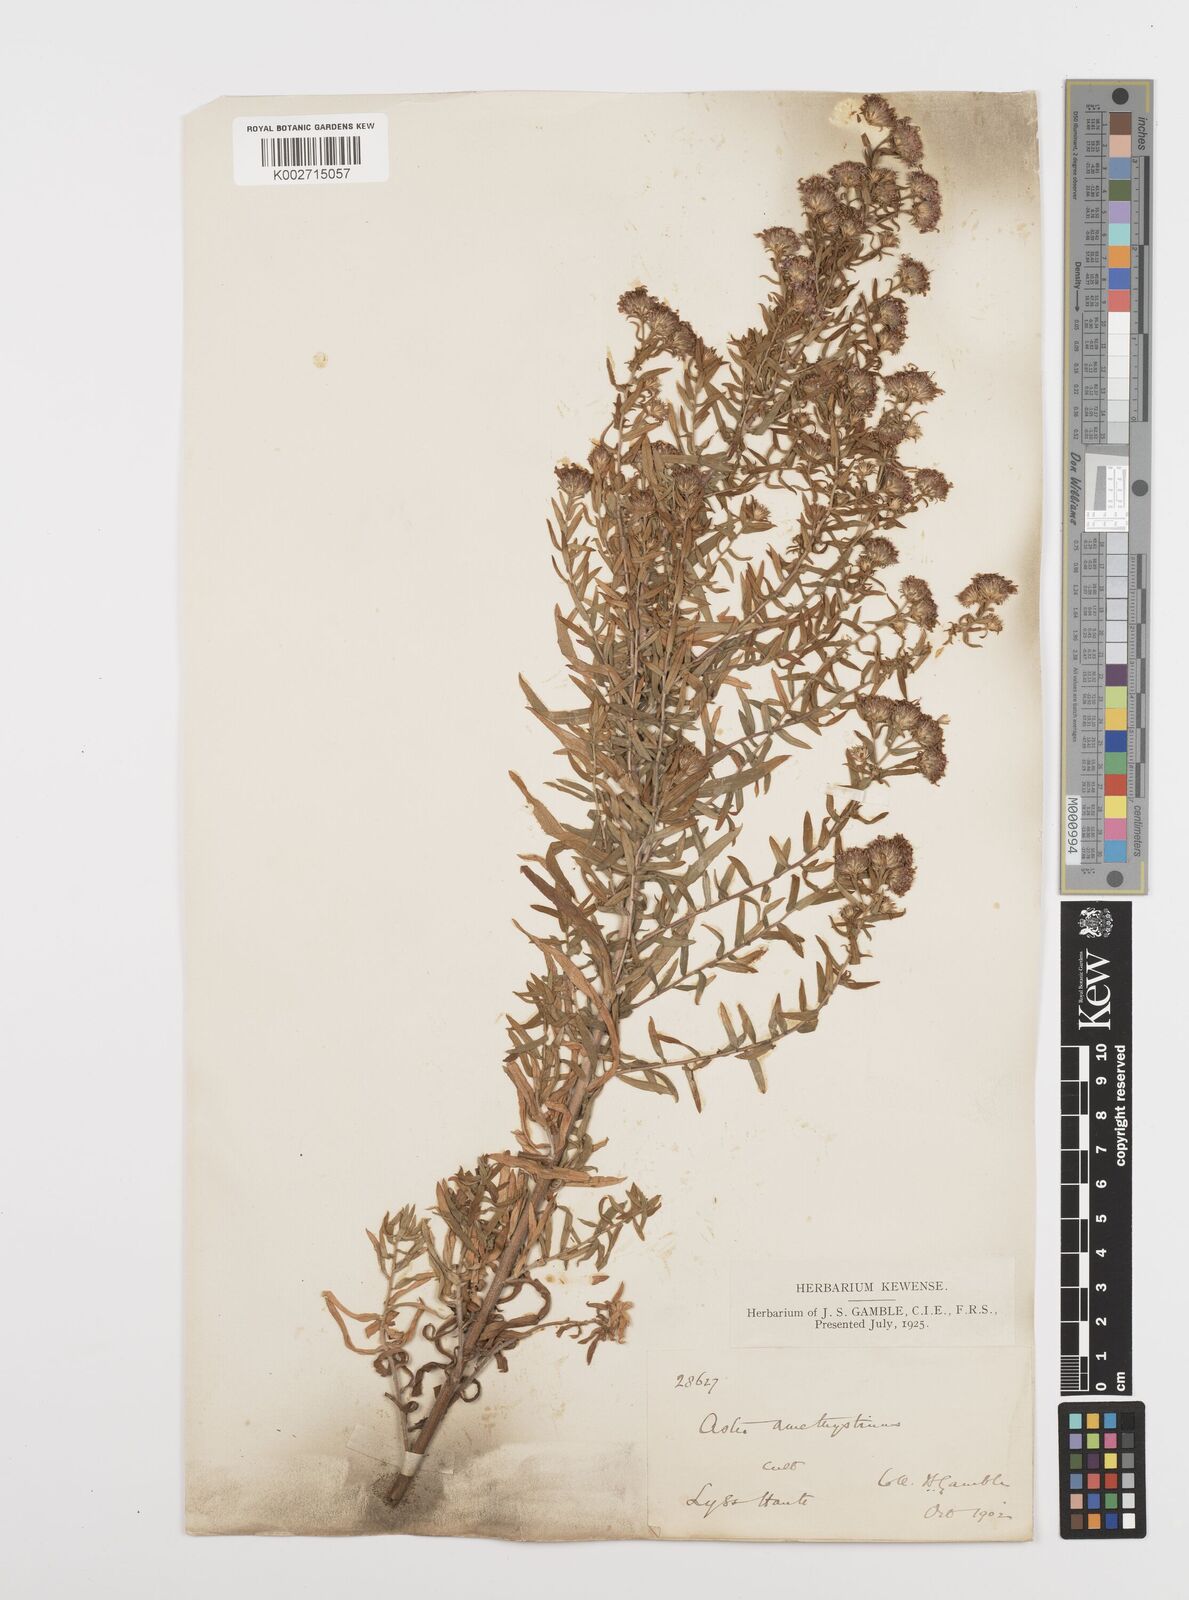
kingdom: Plantae
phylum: Tracheophyta
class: Magnoliopsida
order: Asterales
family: Asteraceae
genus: Symphyotrichum
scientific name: Symphyotrichum amethystinum
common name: Amethyst aster
